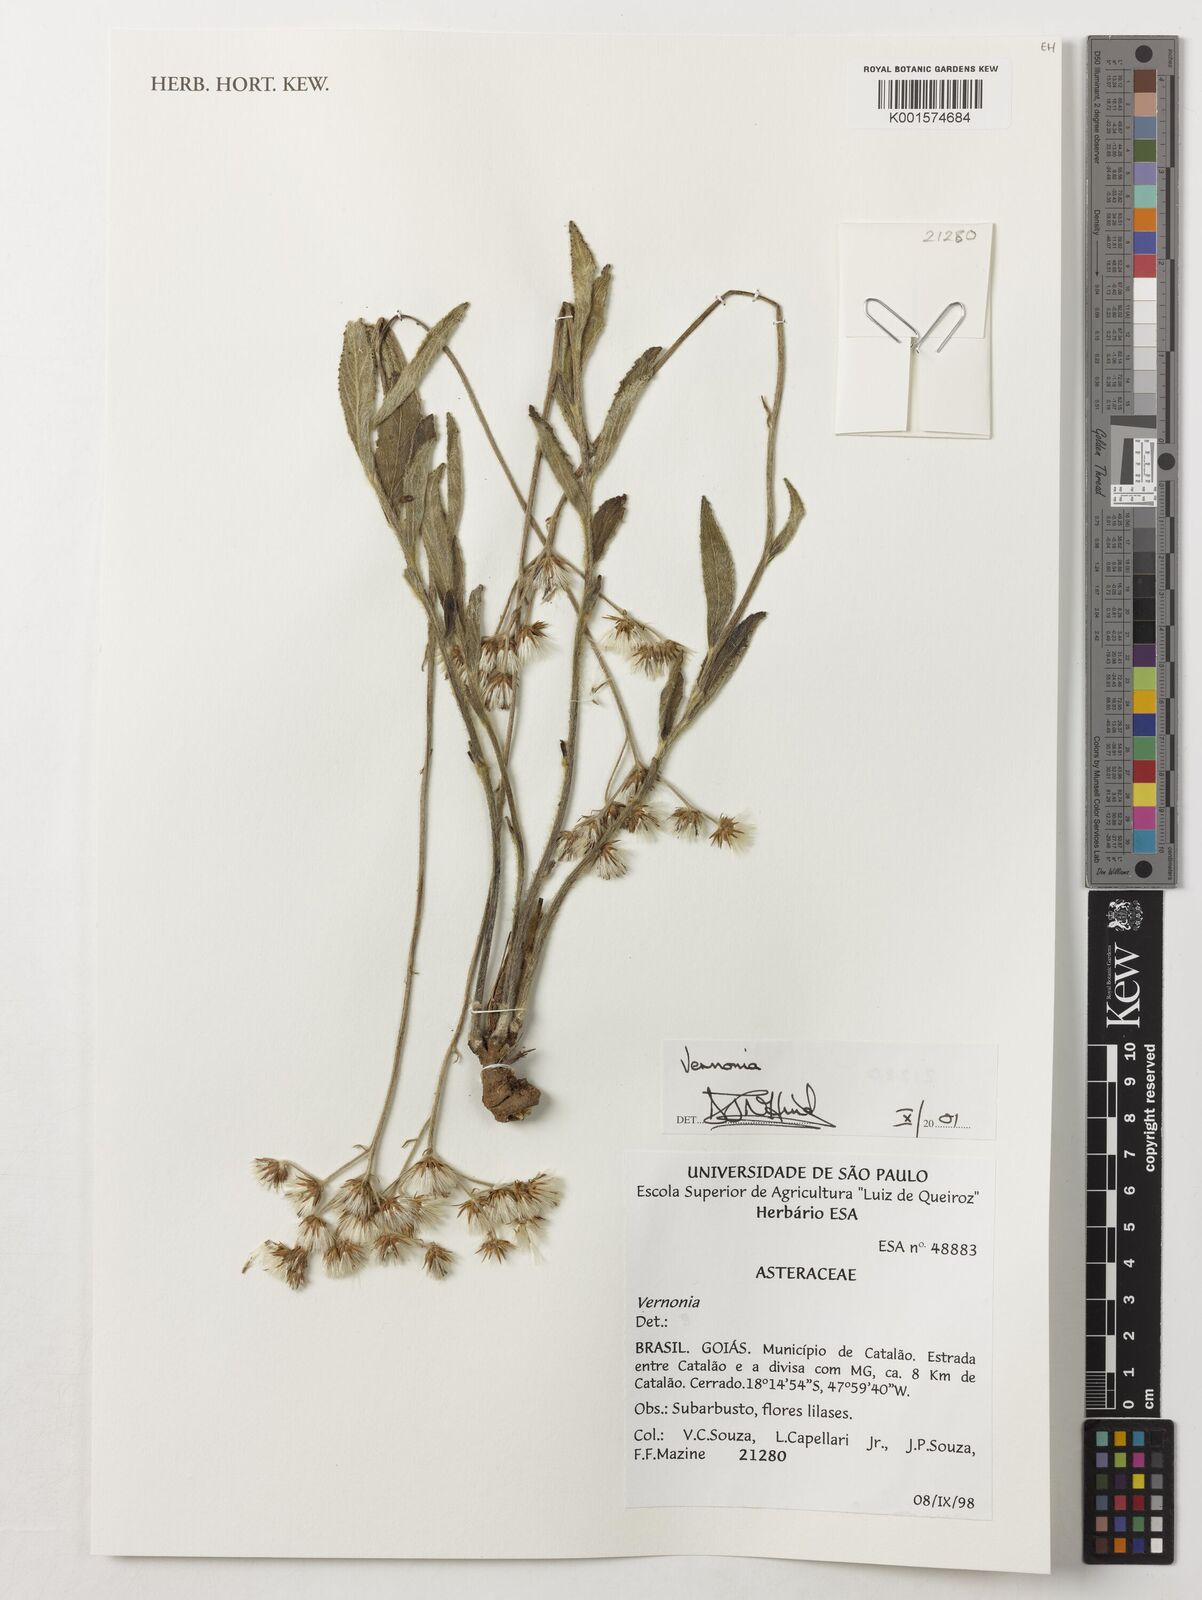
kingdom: Plantae
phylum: Tracheophyta
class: Magnoliopsida
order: Asterales
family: Asteraceae
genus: Vernonia
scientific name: Vernonia
